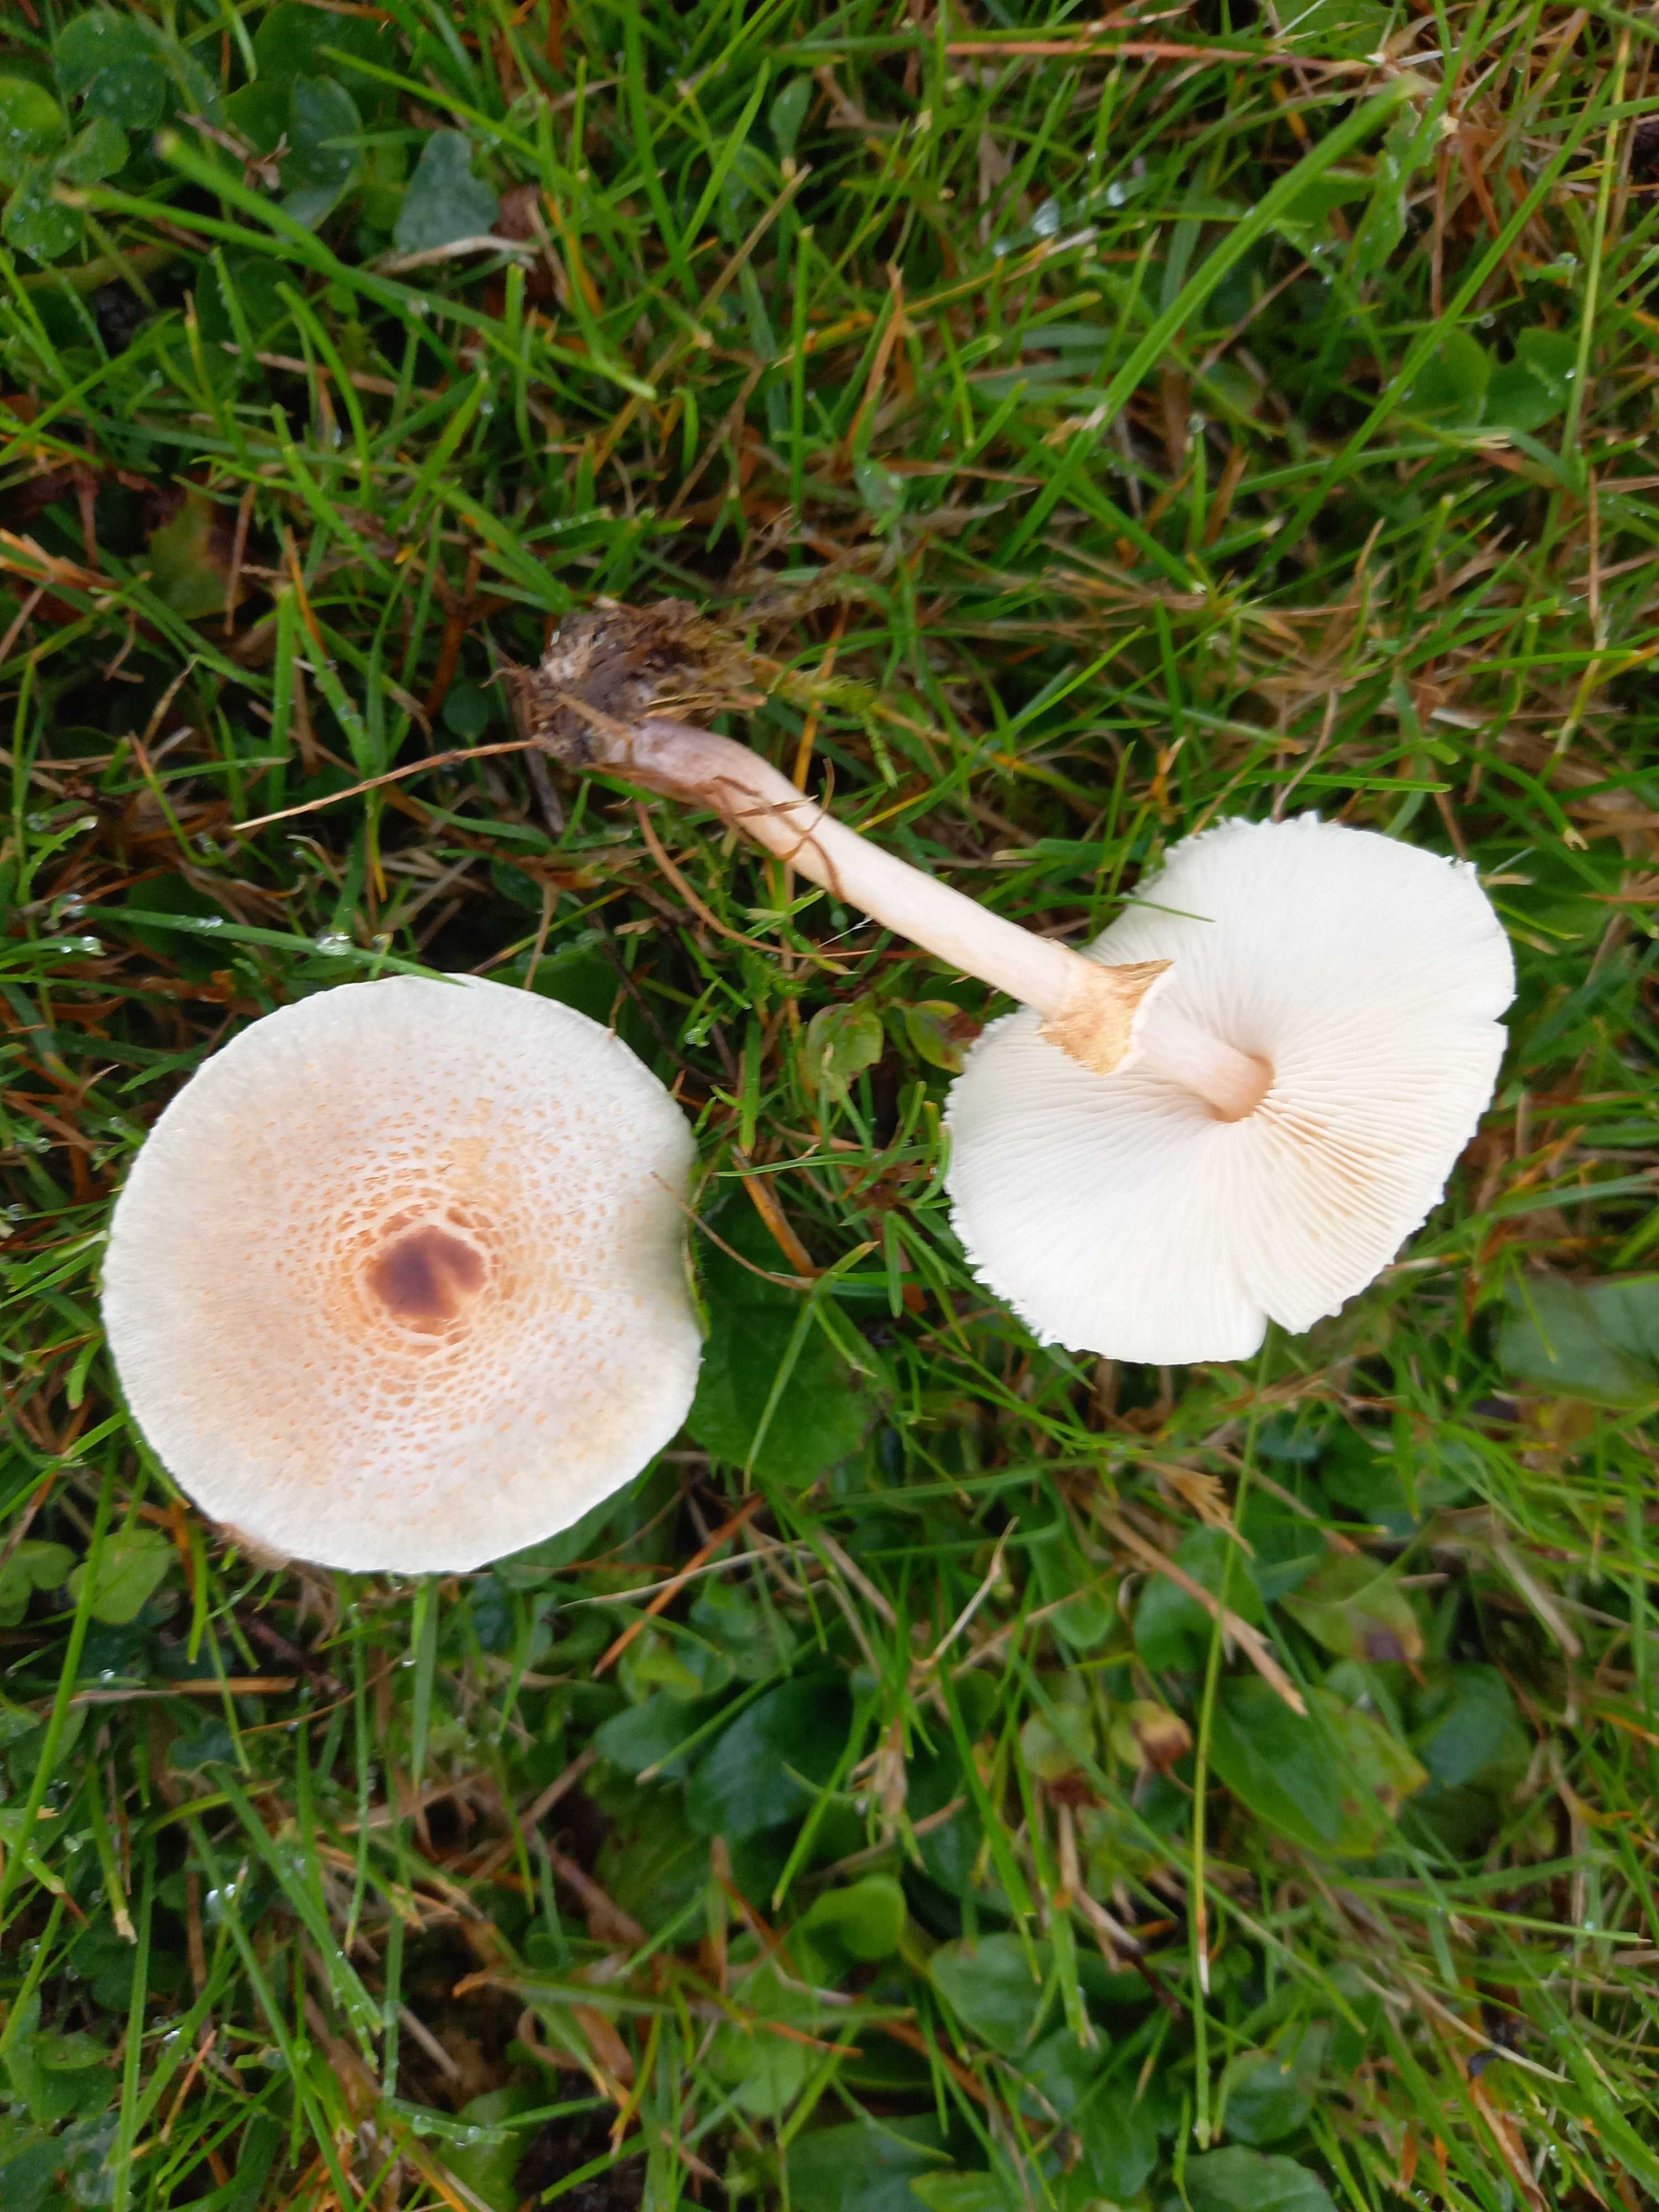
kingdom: Fungi
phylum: Basidiomycota
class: Agaricomycetes
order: Agaricales
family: Agaricaceae
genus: Lepiota
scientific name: Lepiota cristata
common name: stinkende parasolhat
